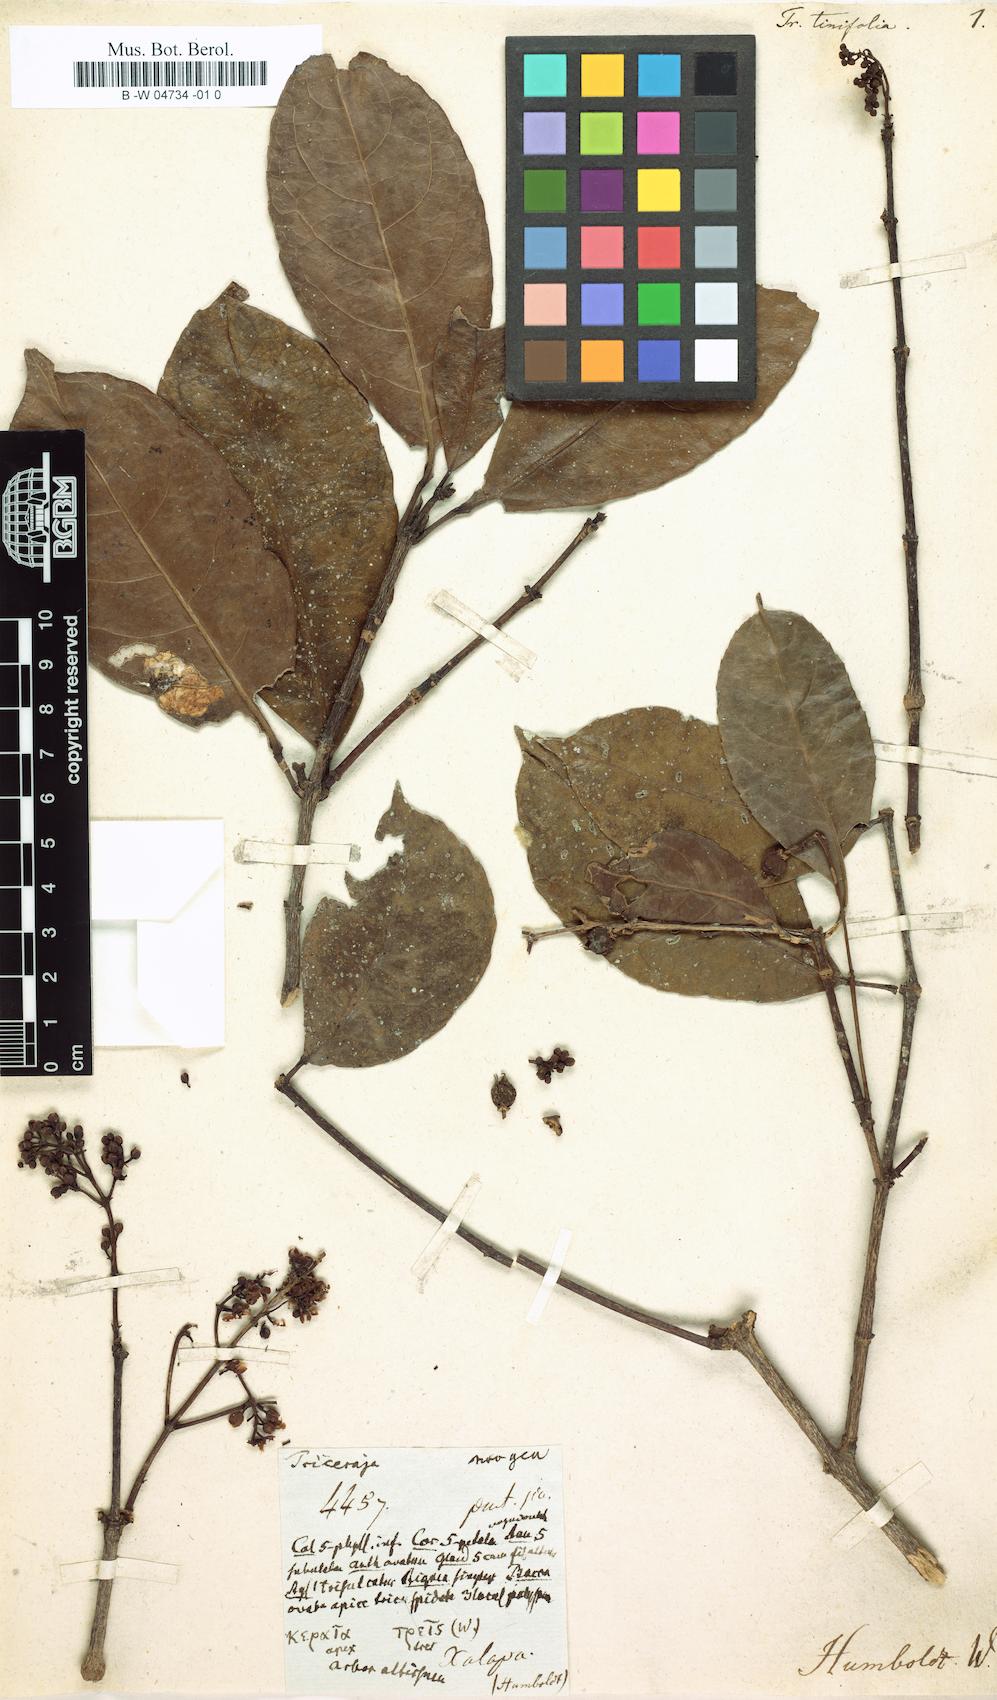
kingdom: Plantae
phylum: Tracheophyta
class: Magnoliopsida
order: Crossosomatales
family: Staphyleaceae
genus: Turpinia
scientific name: Turpinia insignis
